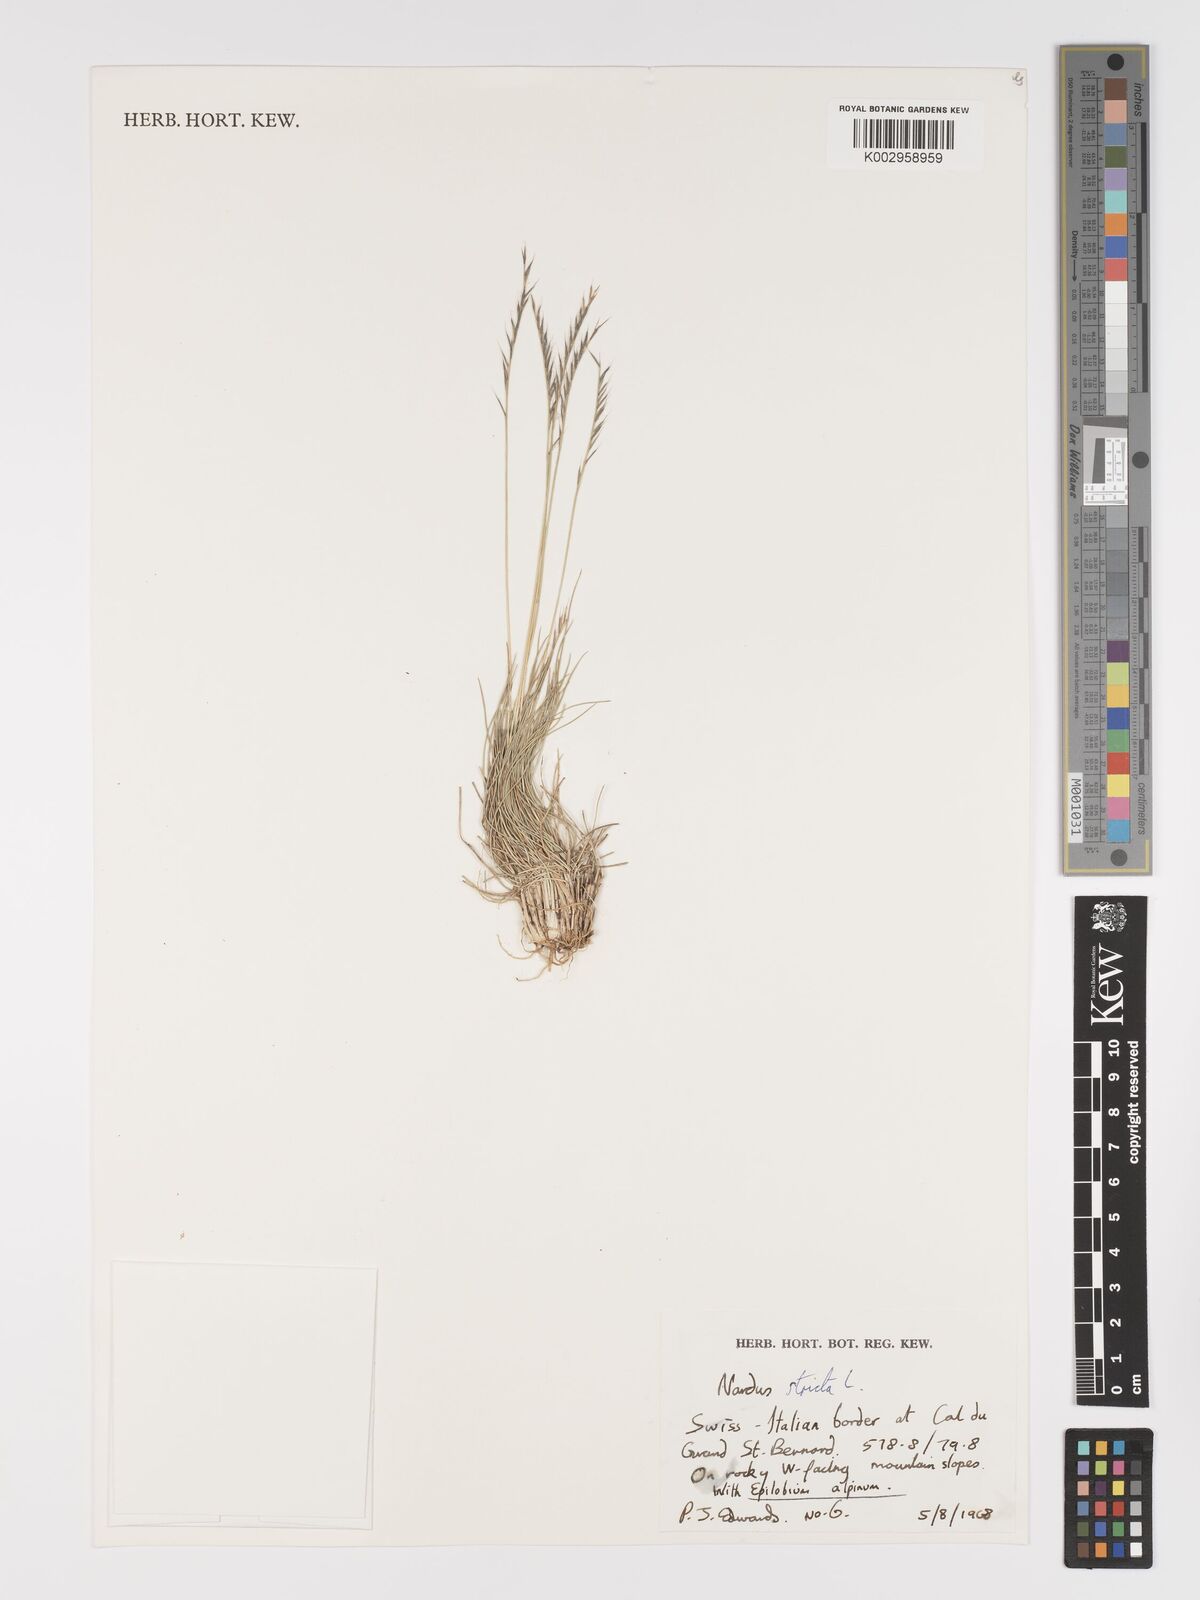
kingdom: Plantae
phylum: Tracheophyta
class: Liliopsida
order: Poales
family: Poaceae
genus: Nardus
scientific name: Nardus stricta
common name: Mat-grass
